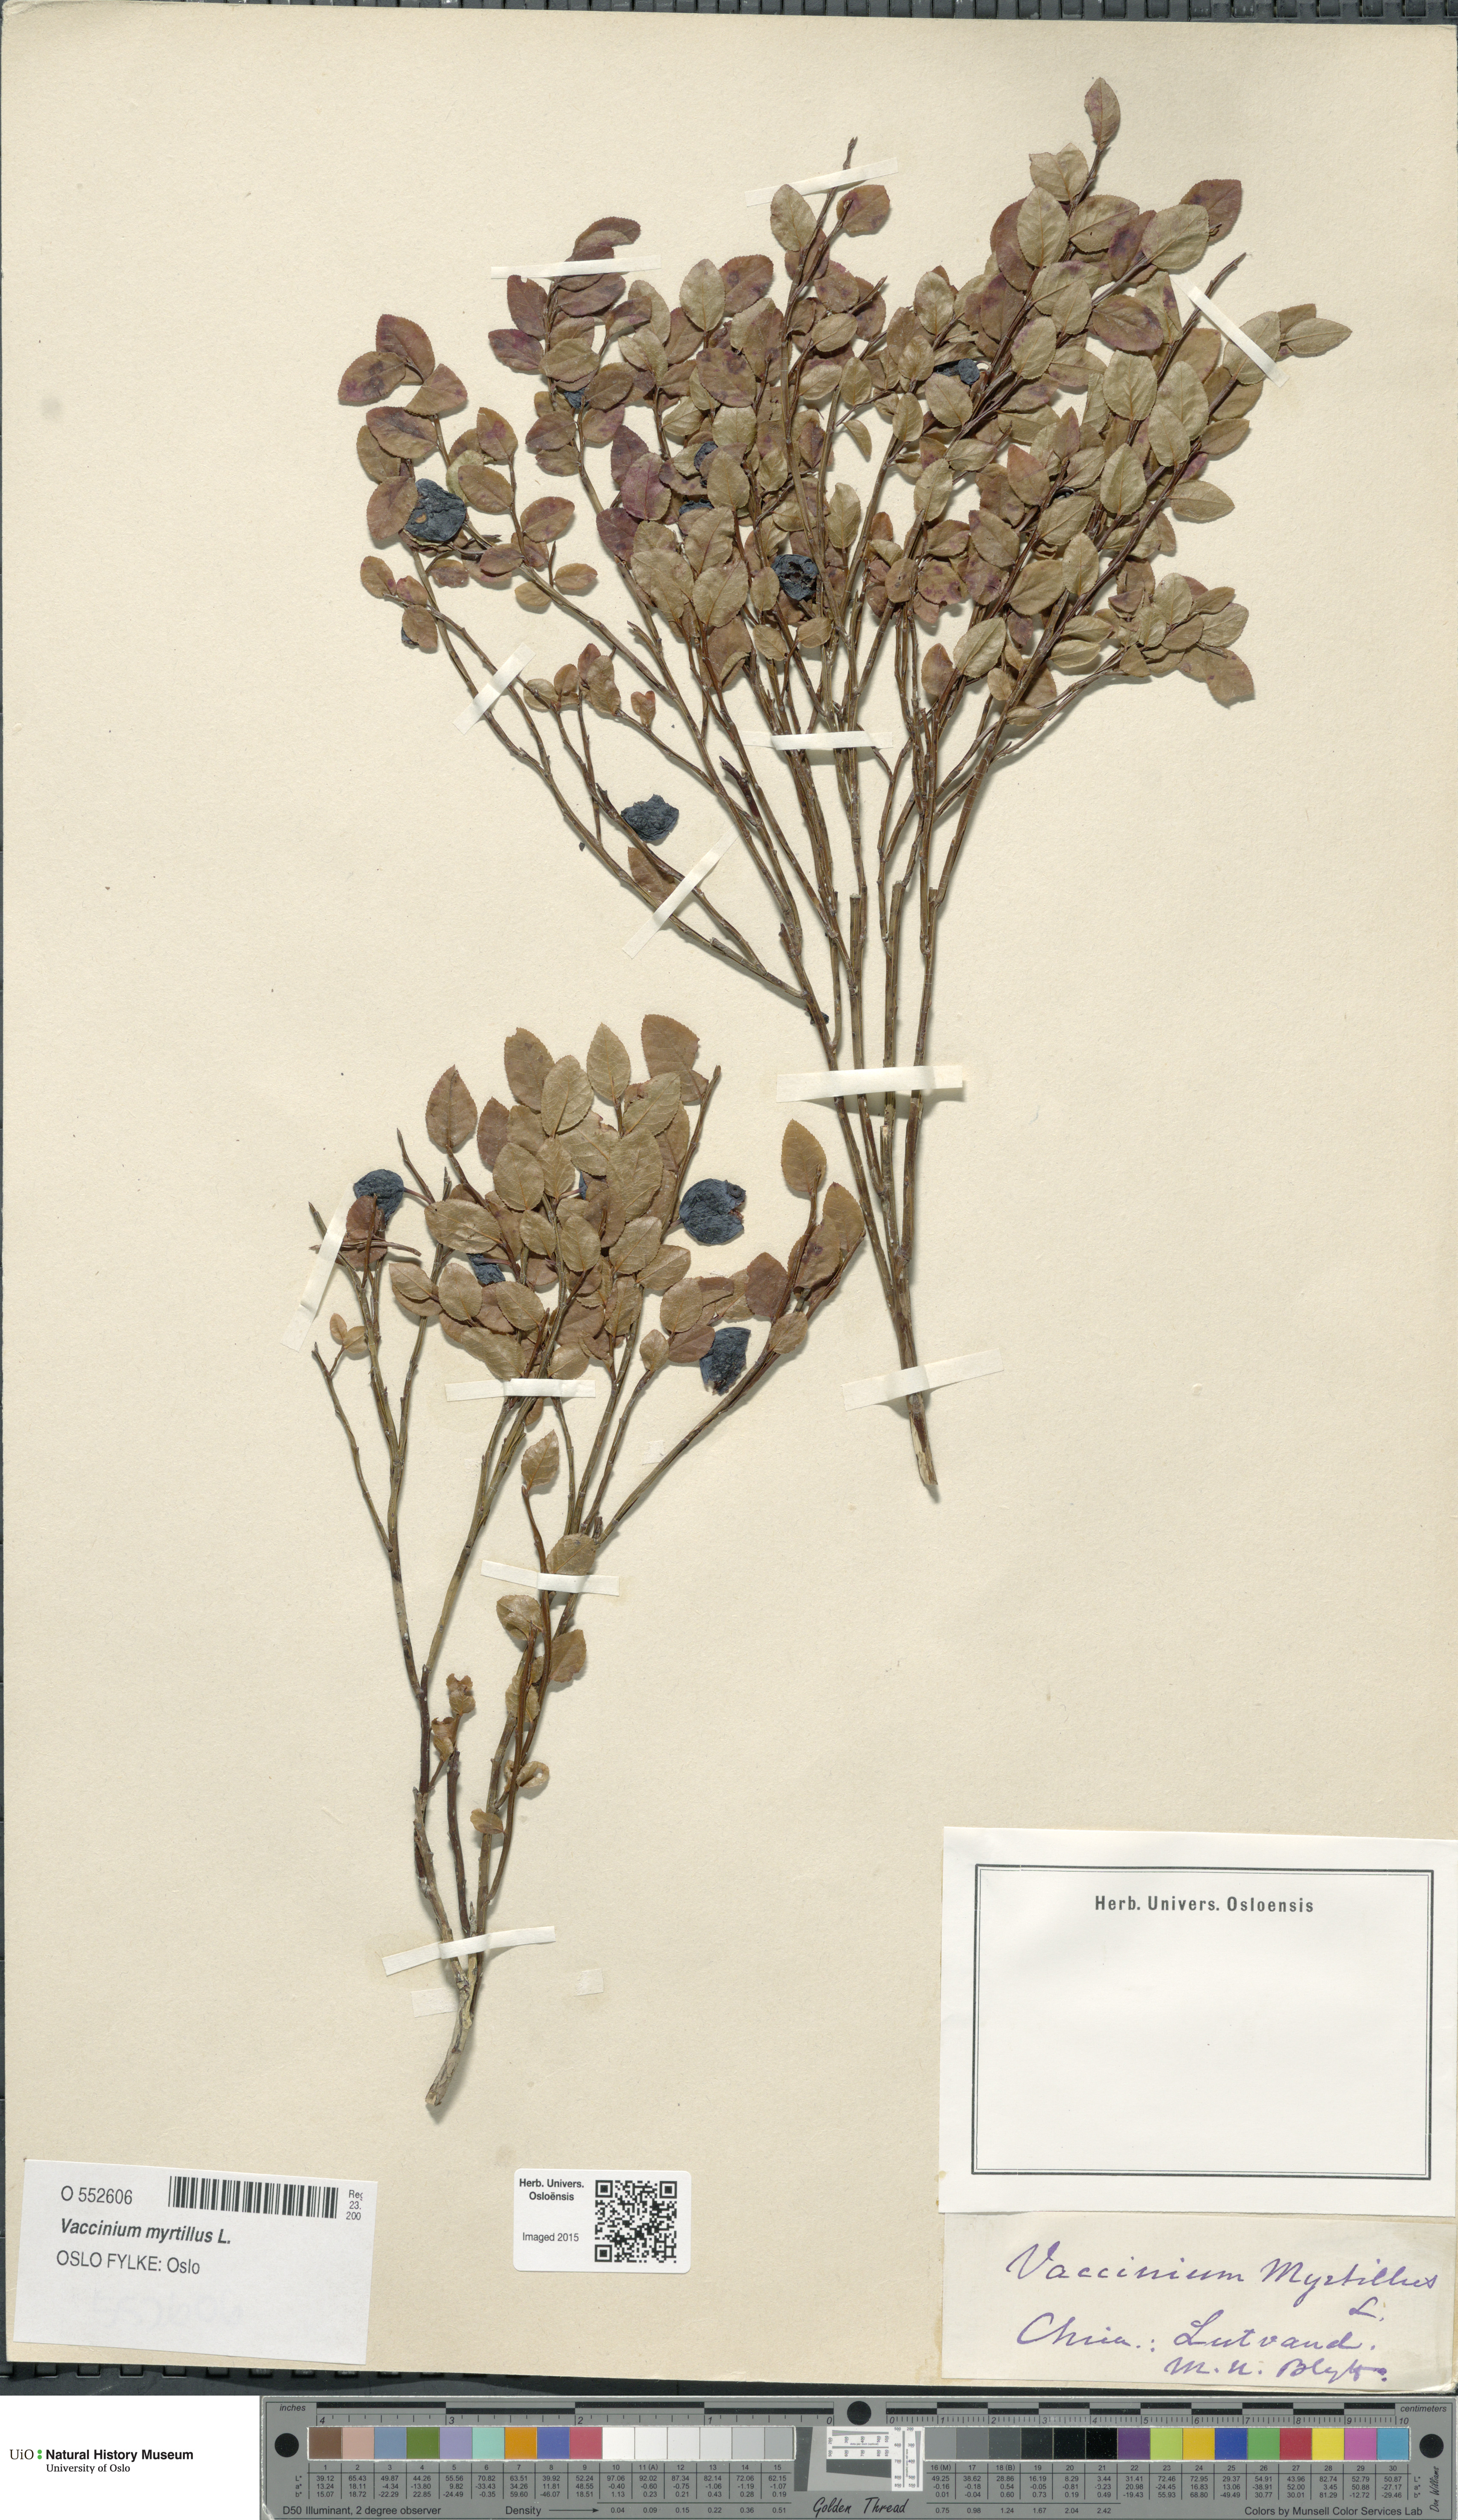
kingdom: Plantae
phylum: Tracheophyta
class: Magnoliopsida
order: Ericales
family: Ericaceae
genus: Vaccinium
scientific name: Vaccinium myrtillus
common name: Bilberry
